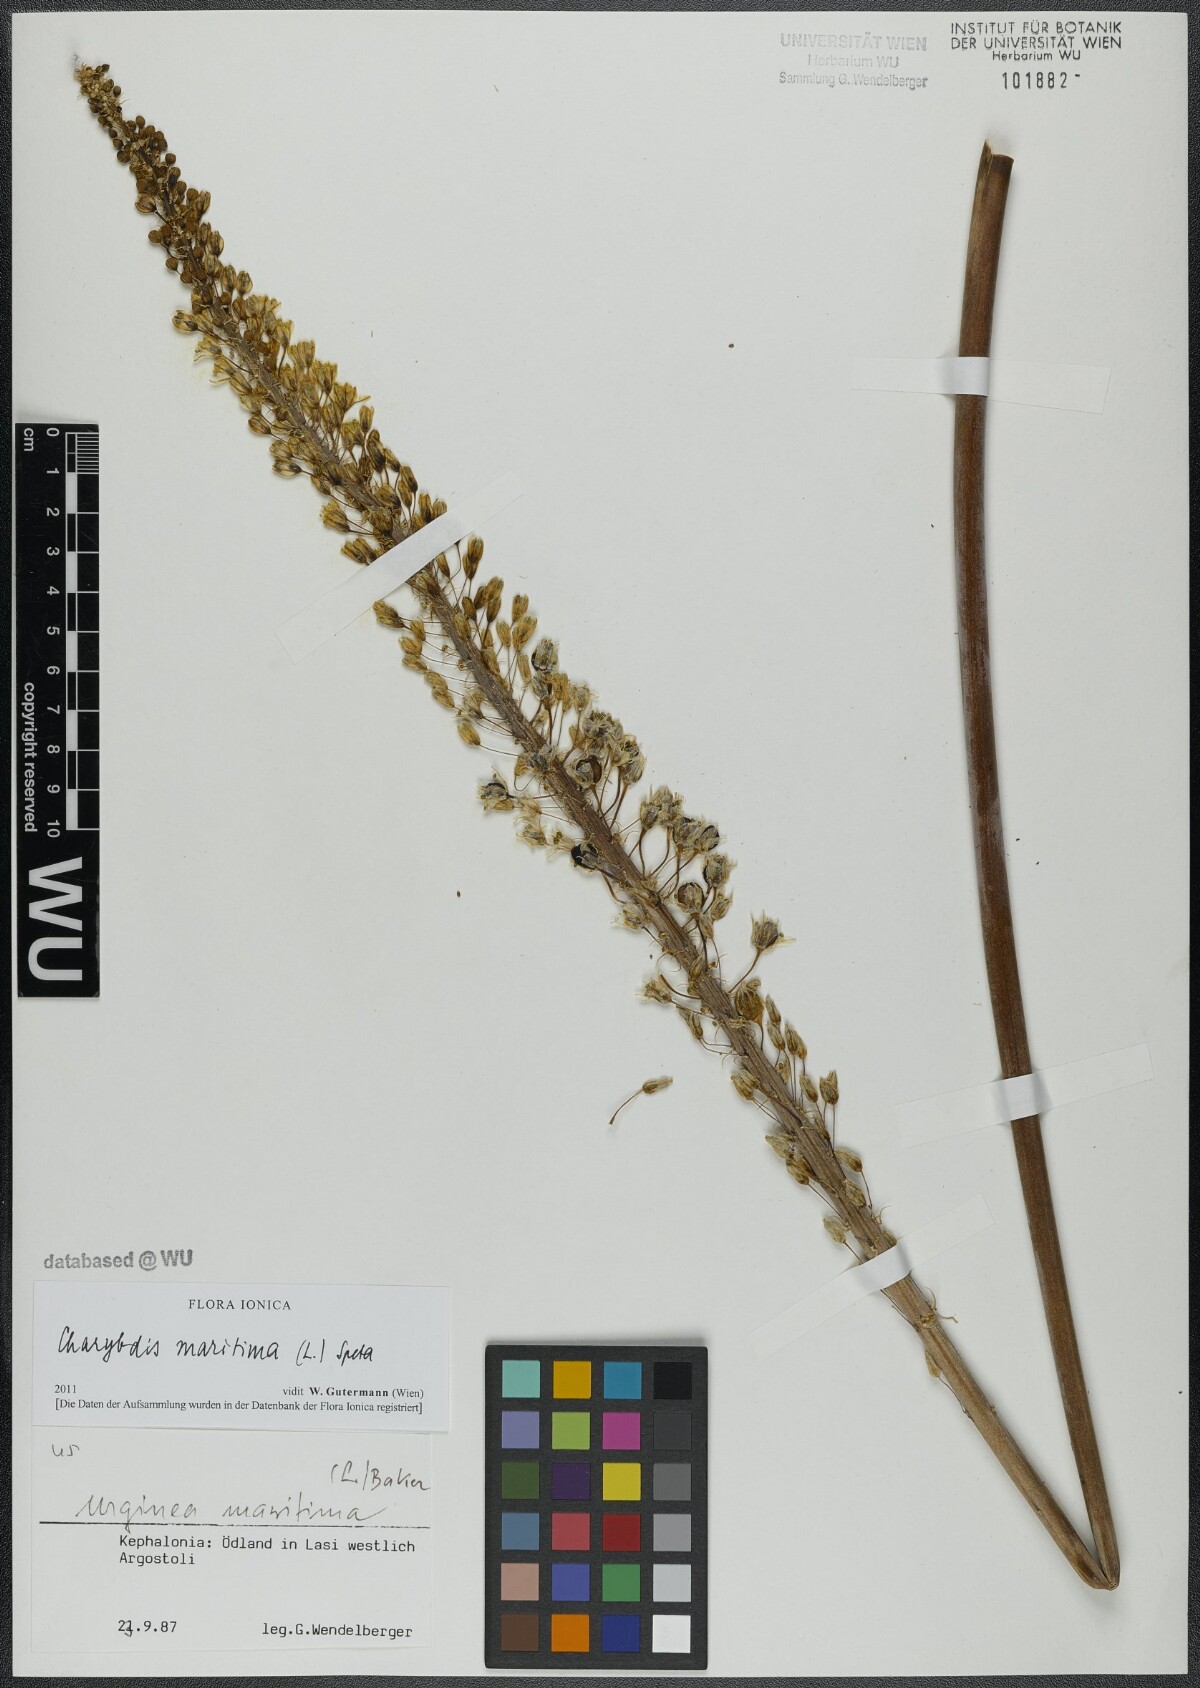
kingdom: Plantae
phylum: Tracheophyta
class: Liliopsida
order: Asparagales
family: Asparagaceae
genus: Drimia
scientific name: Drimia maritima
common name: Maritime squill
